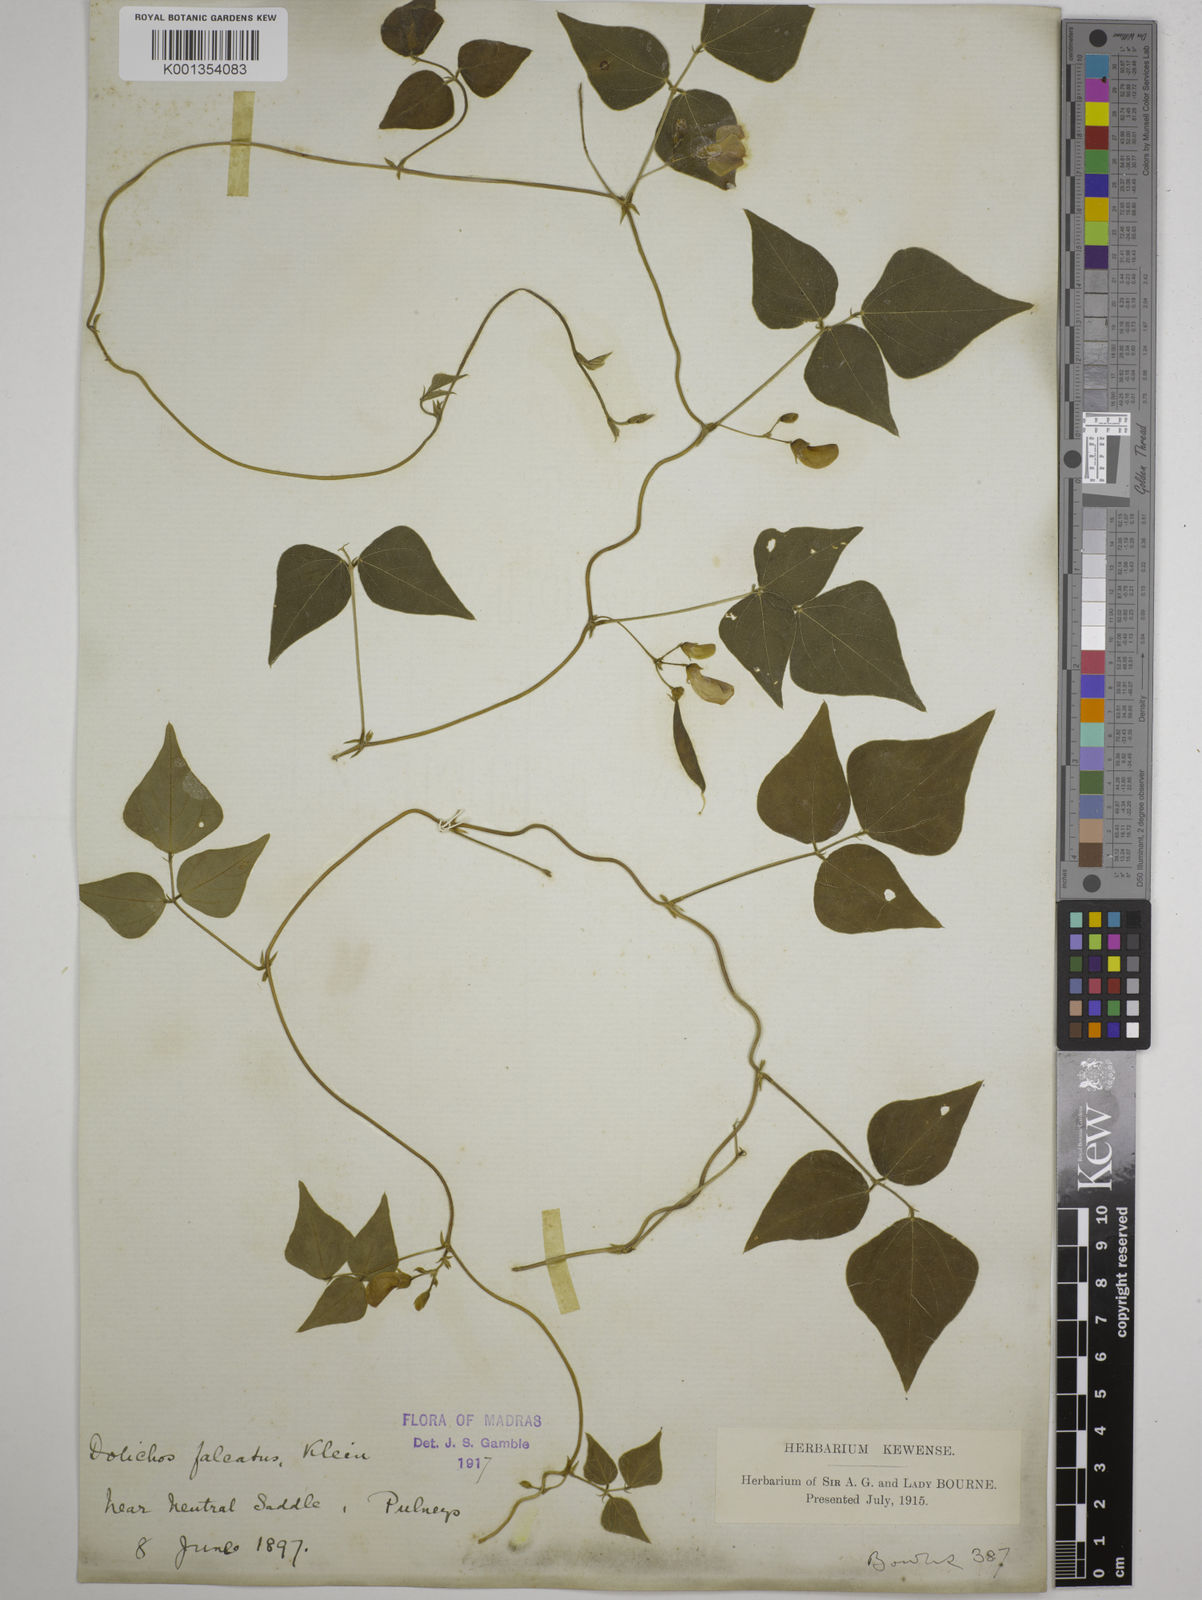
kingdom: Plantae
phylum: Tracheophyta
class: Magnoliopsida
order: Fabales
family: Fabaceae
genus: Dolichos
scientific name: Dolichos
